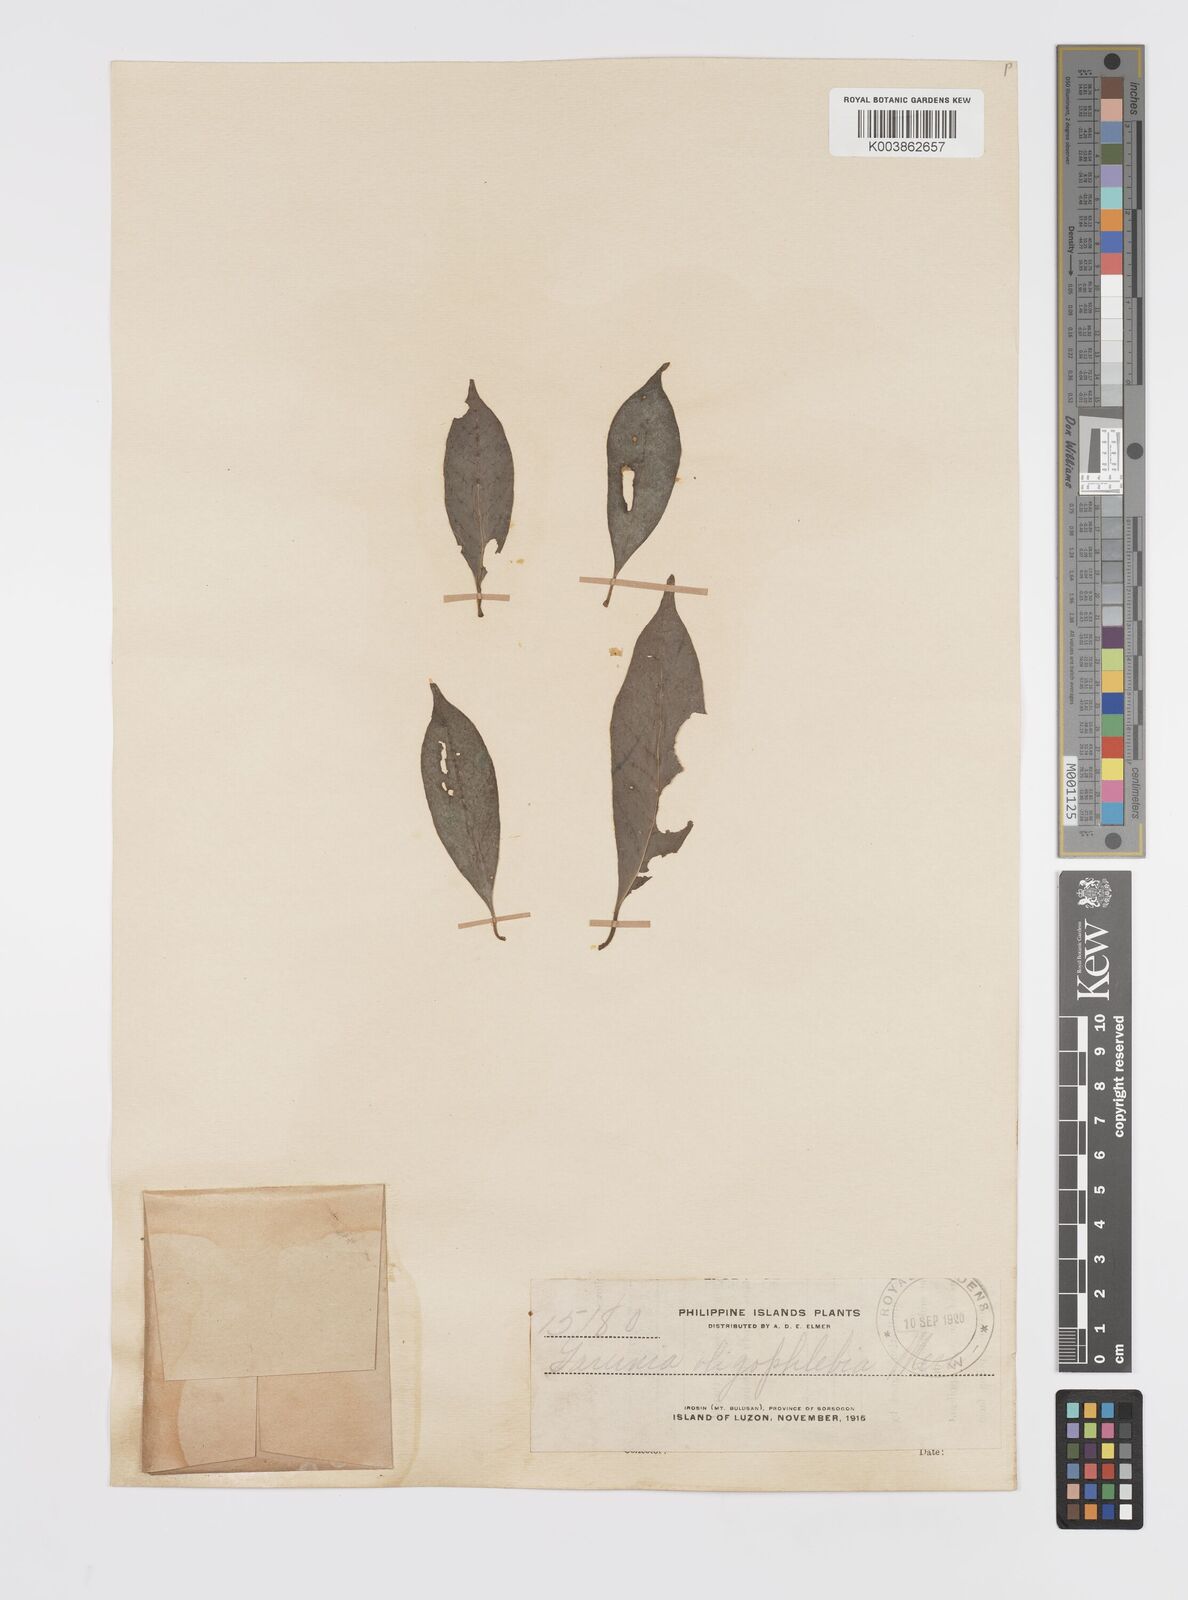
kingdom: Plantae
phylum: Tracheophyta
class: Magnoliopsida
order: Malpighiales
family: Clusiaceae
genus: Garcinia
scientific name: Garcinia rubra
